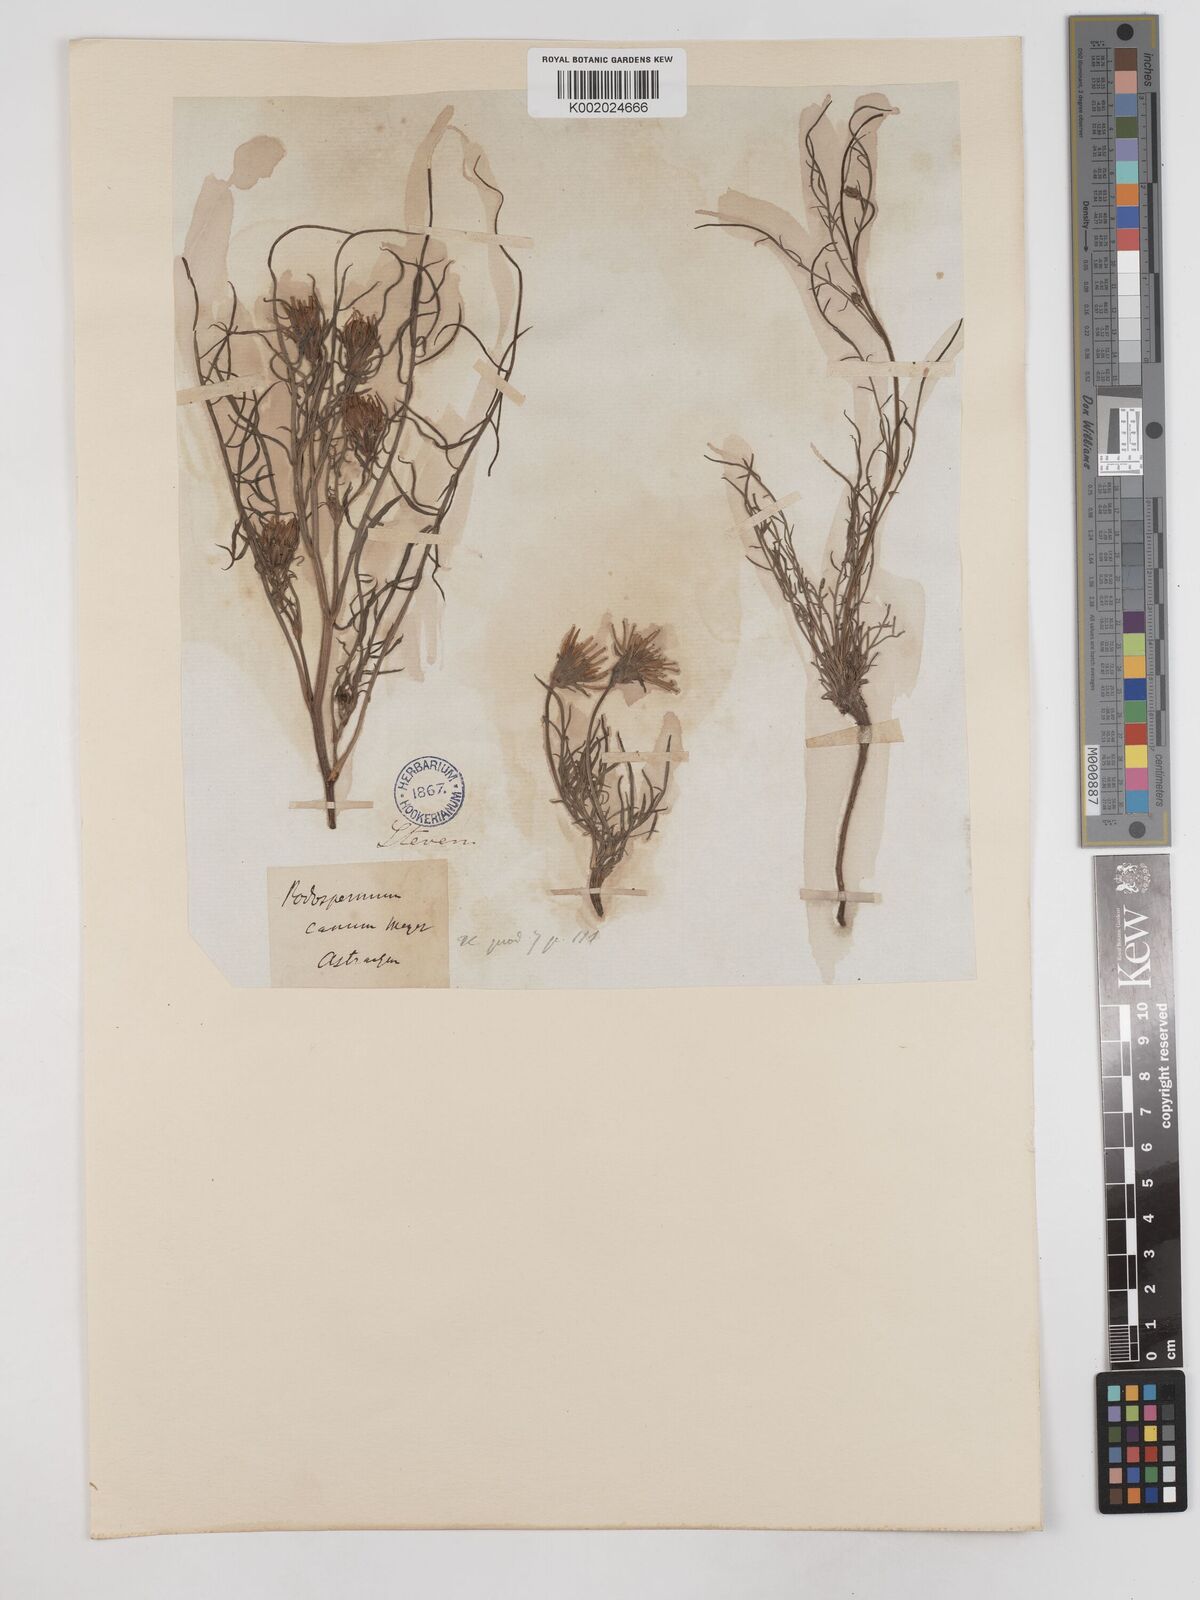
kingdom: Plantae
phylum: Tracheophyta
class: Magnoliopsida
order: Asterales
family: Asteraceae
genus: Scorzonera
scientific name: Scorzonera cana
